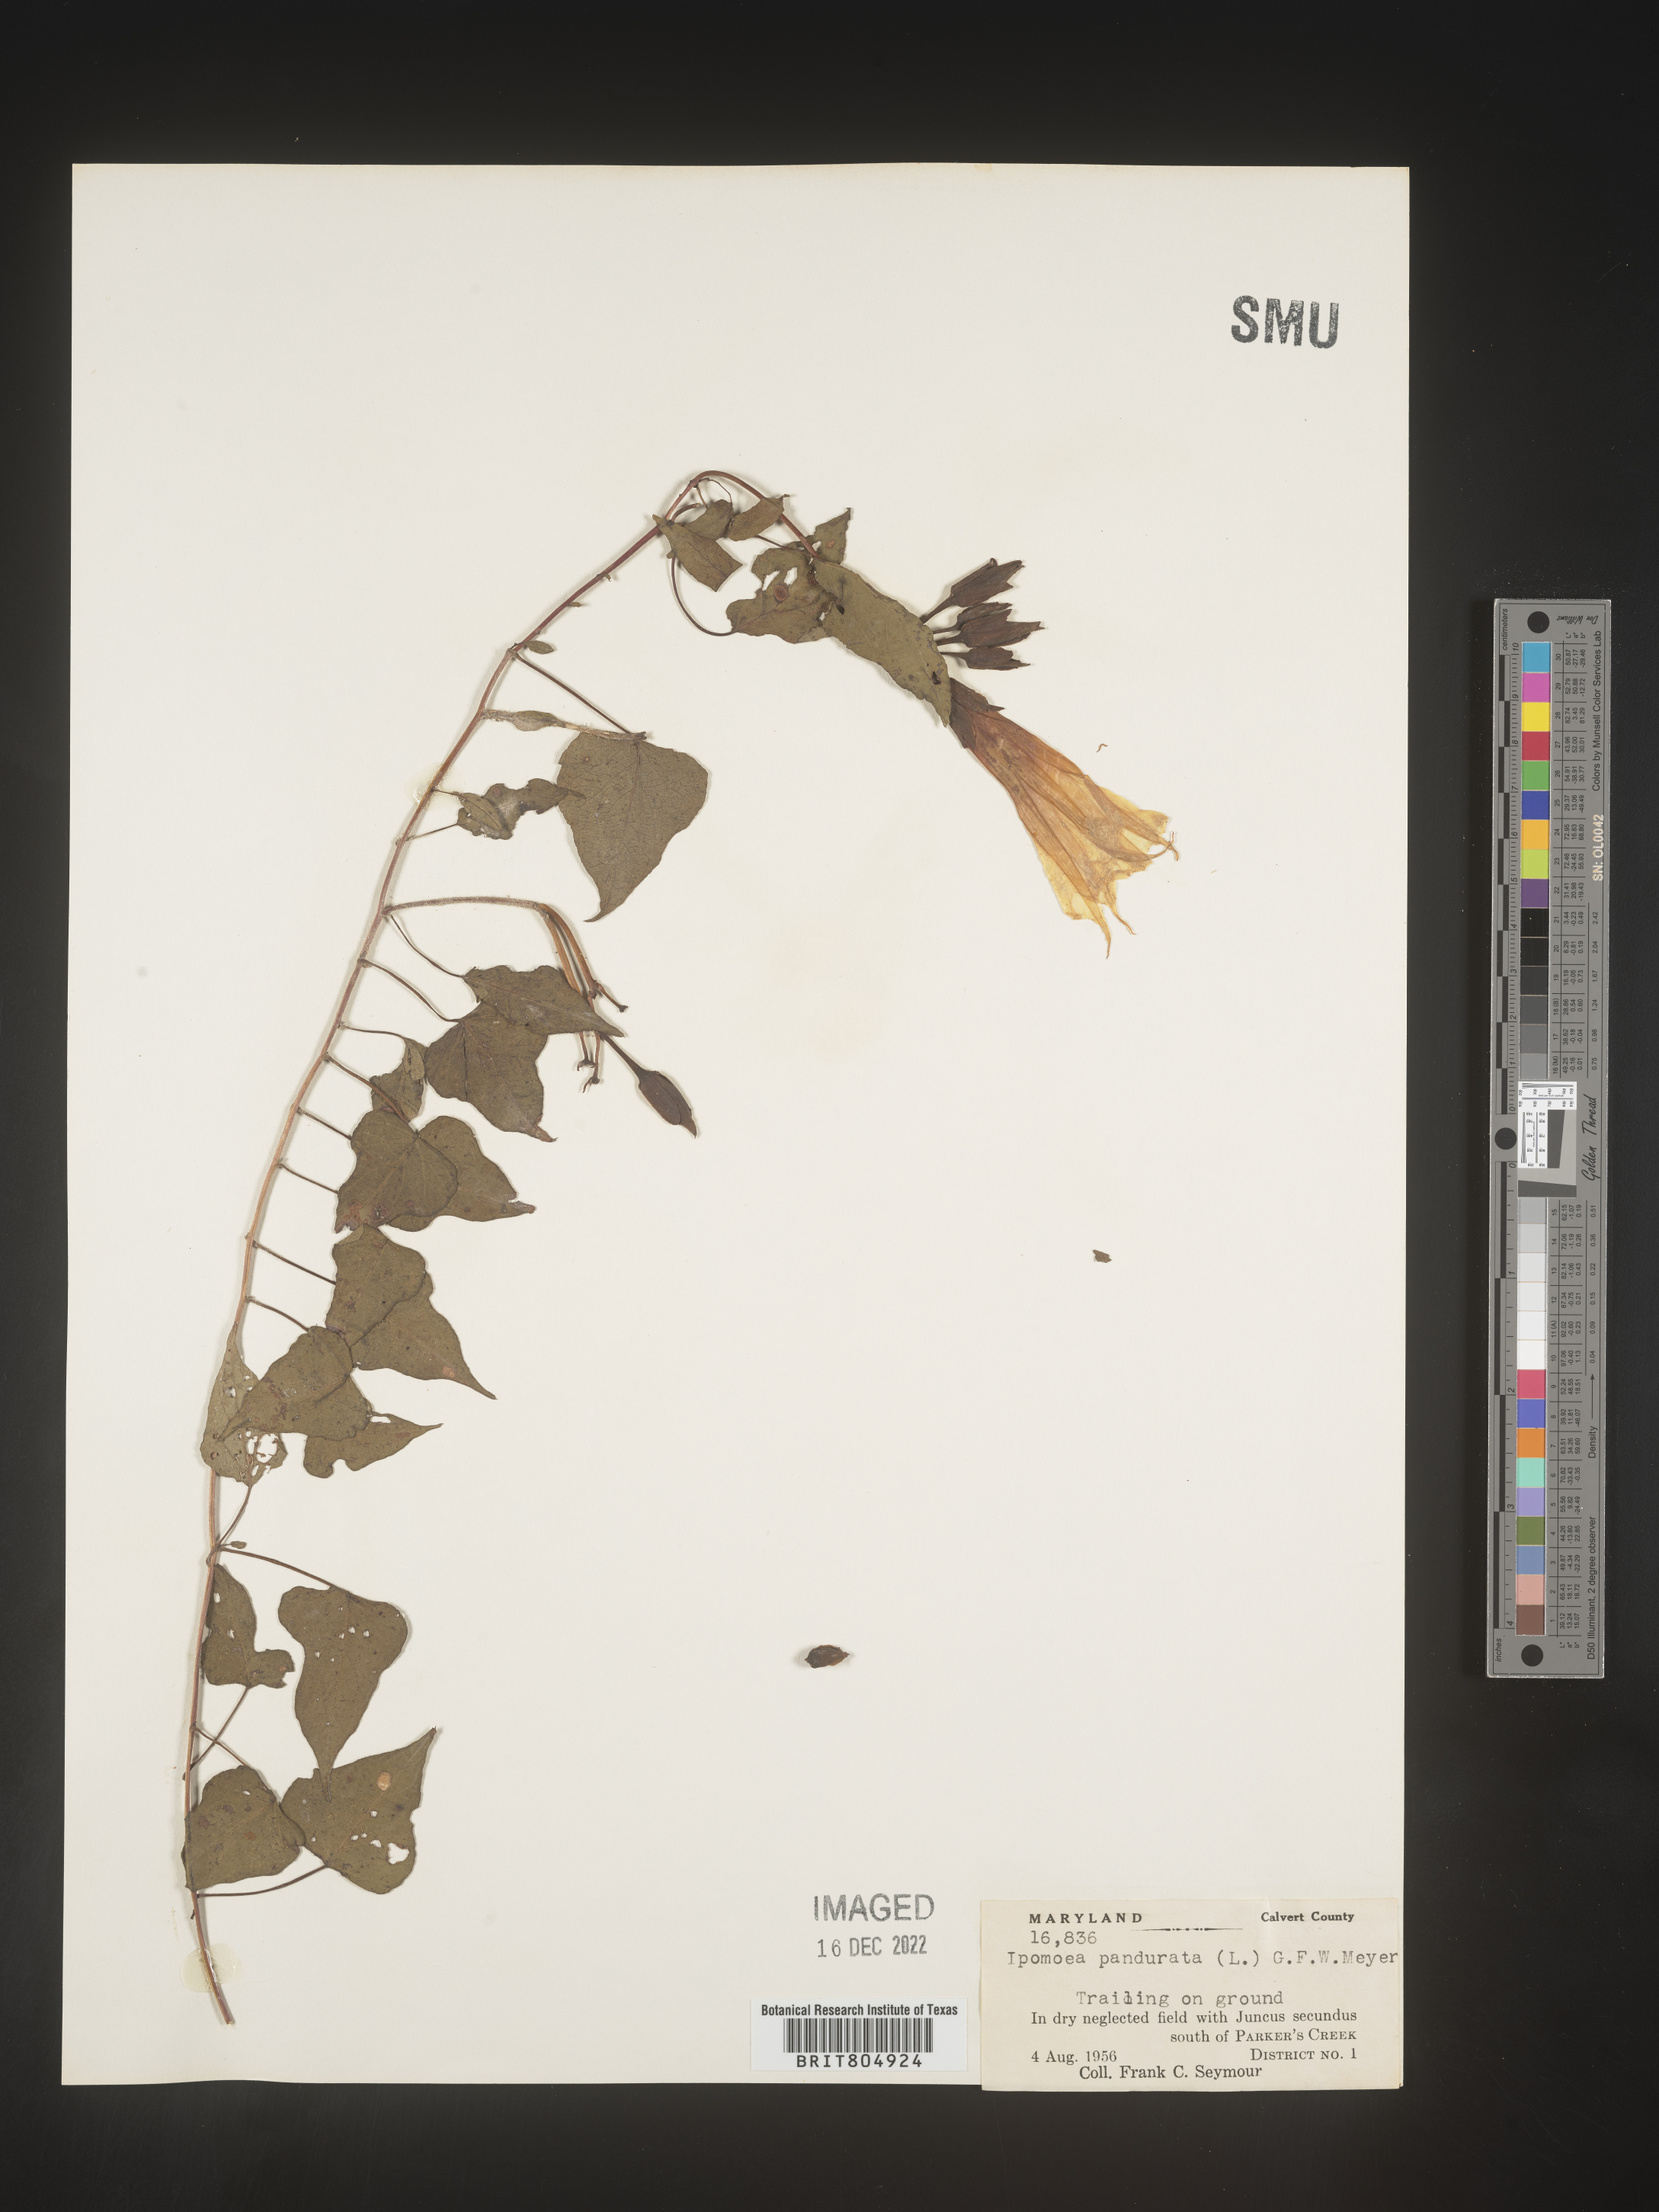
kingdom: Plantae
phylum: Tracheophyta
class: Magnoliopsida
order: Solanales
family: Convolvulaceae
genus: Ipomoea
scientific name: Ipomoea pandurata
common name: Man-of-the-earth
